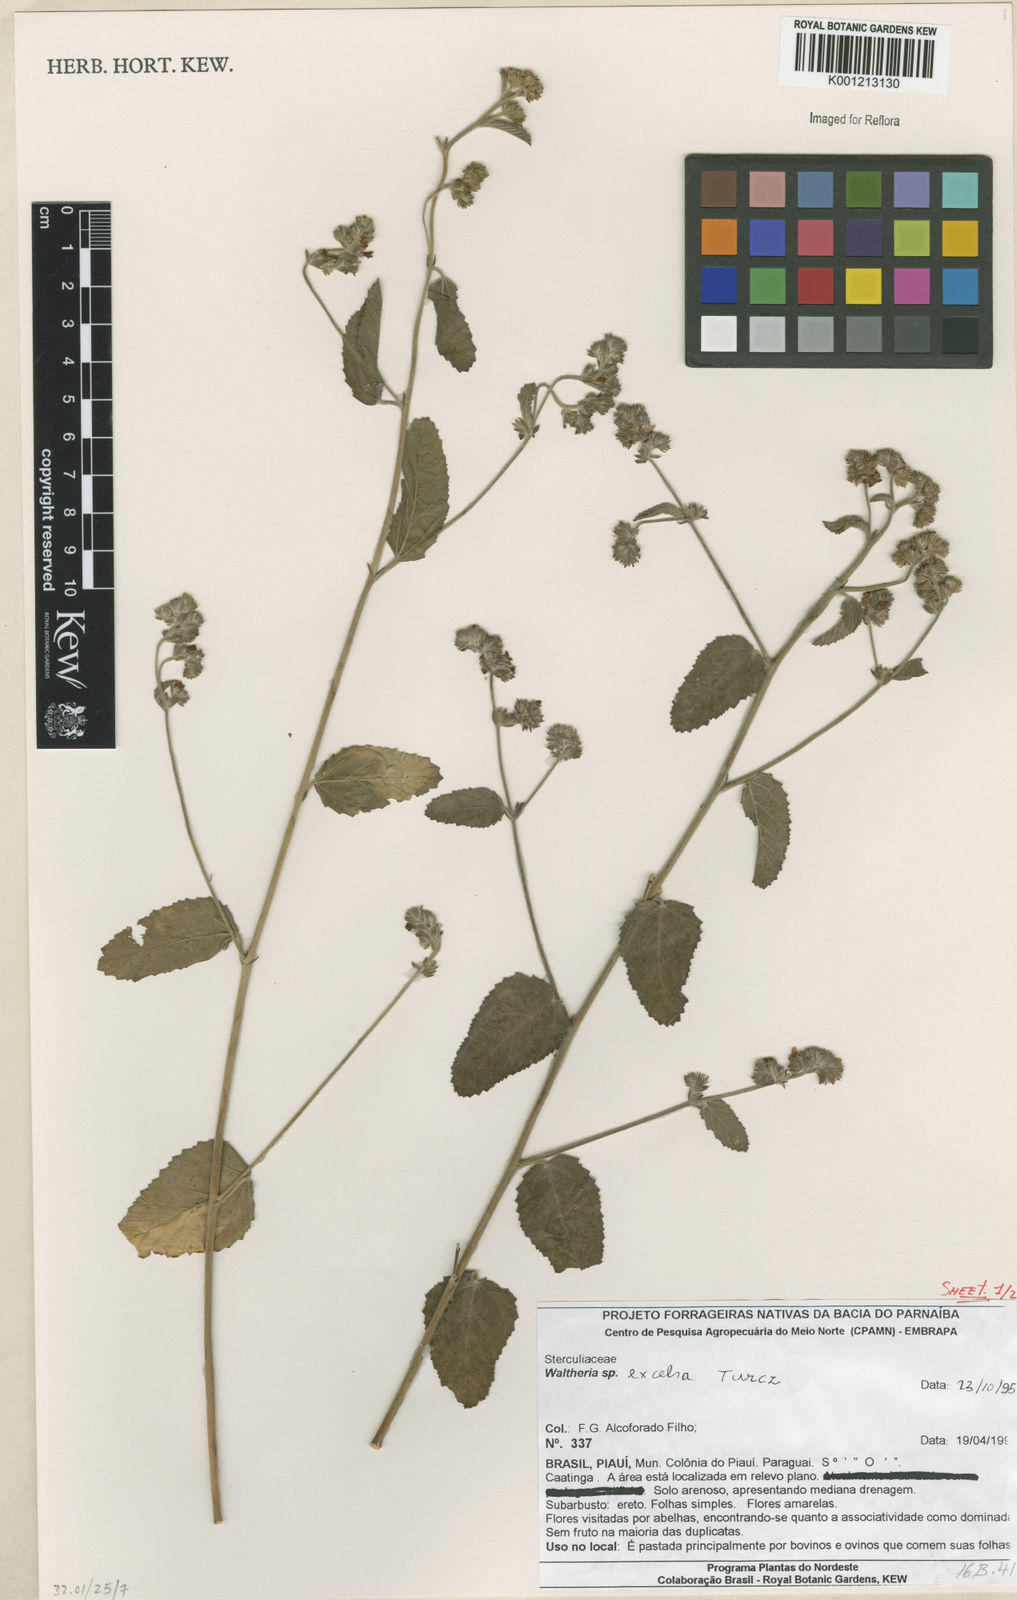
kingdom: Plantae
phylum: Tracheophyta
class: Magnoliopsida
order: Malvales
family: Malvaceae
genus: Waltheria
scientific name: Waltheria excelsa
